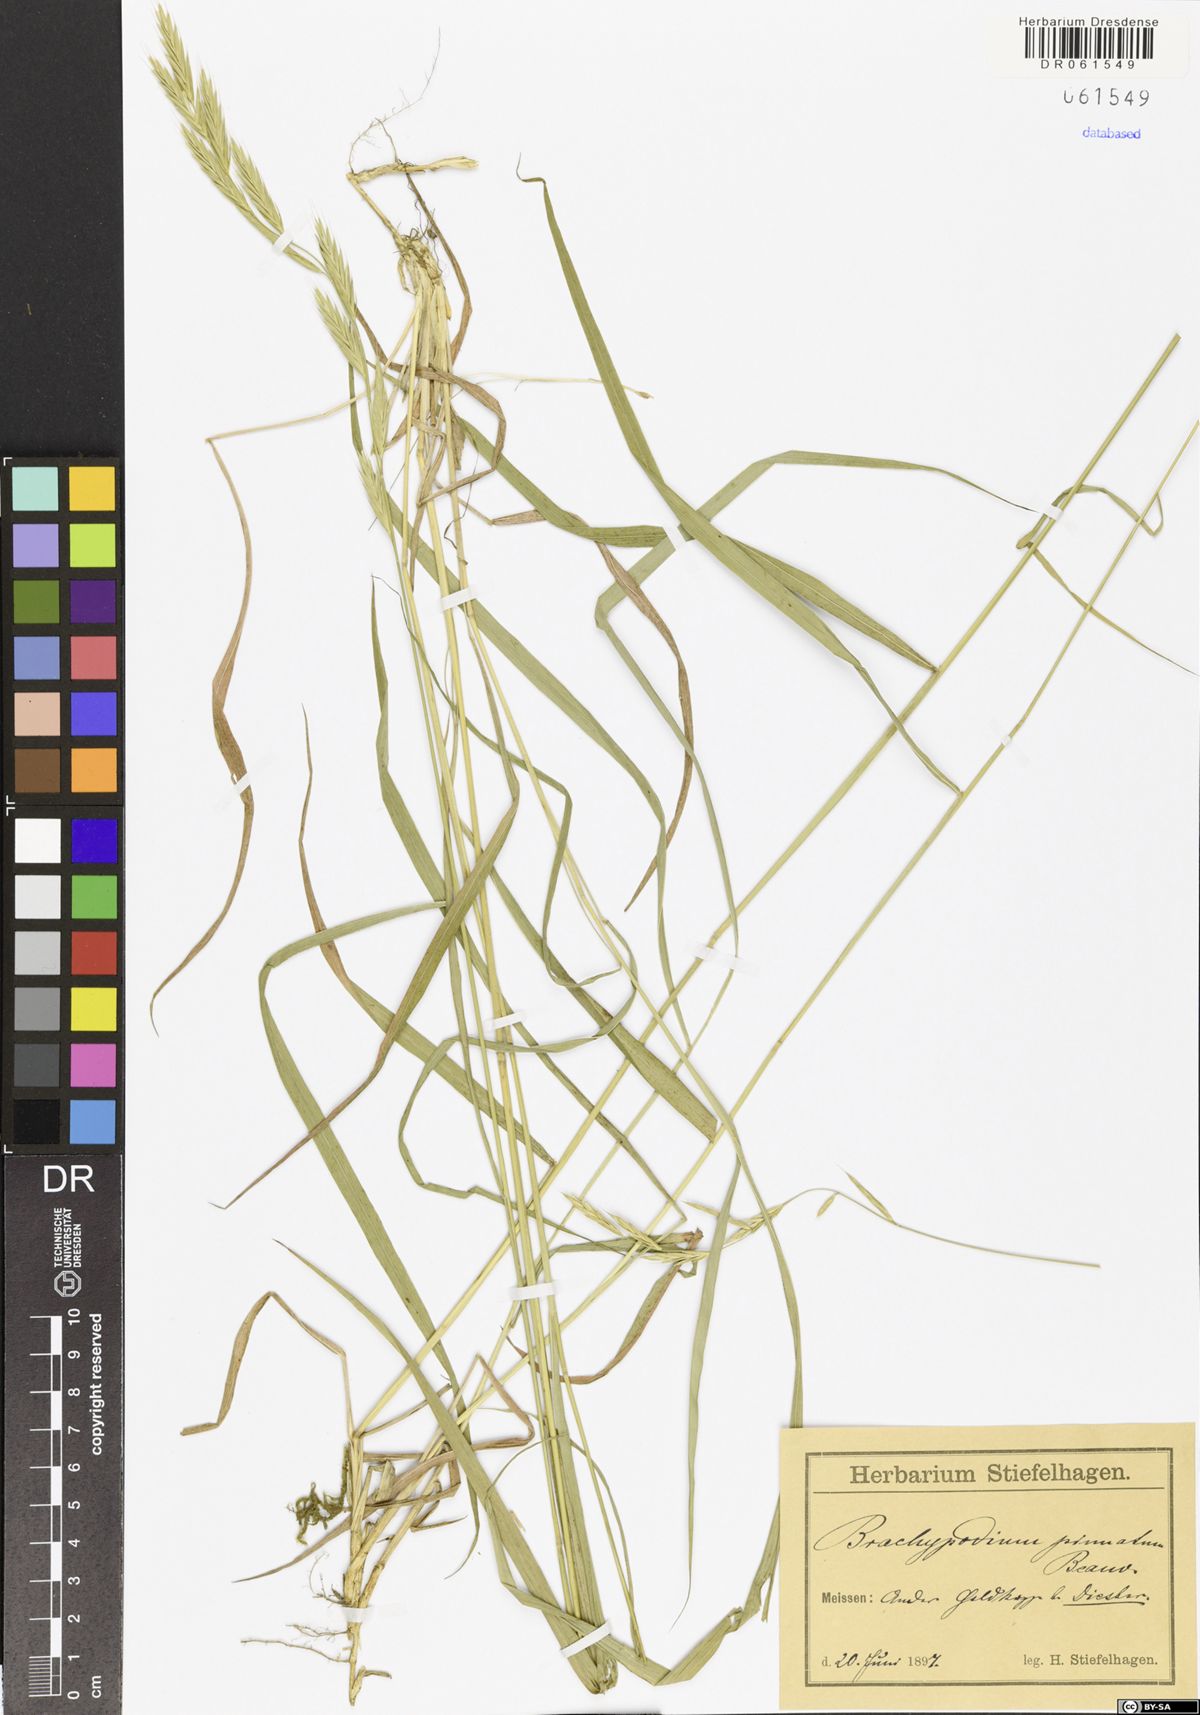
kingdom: Plantae
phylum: Tracheophyta
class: Liliopsida
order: Poales
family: Poaceae
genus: Brachypodium
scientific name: Brachypodium pinnatum
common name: Tor grass
